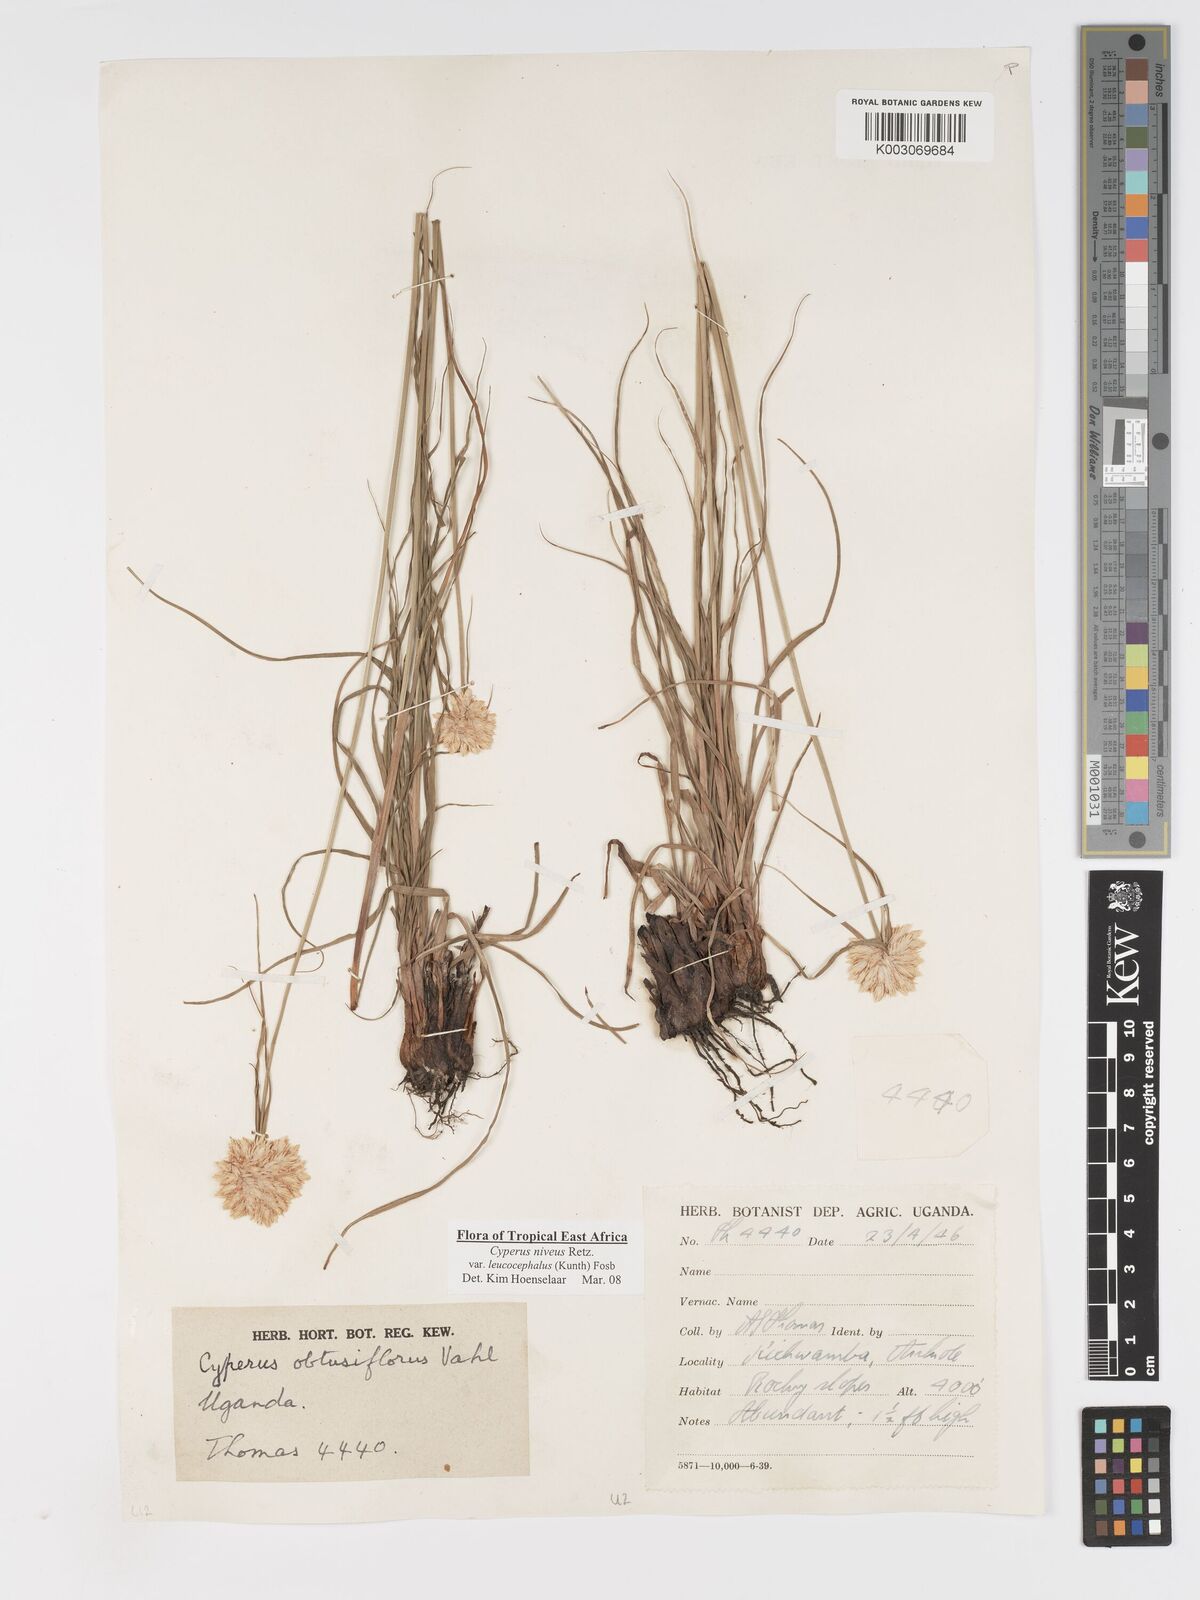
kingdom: Plantae
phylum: Tracheophyta
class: Liliopsida
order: Poales
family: Cyperaceae
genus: Cyperus
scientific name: Cyperus niveus
